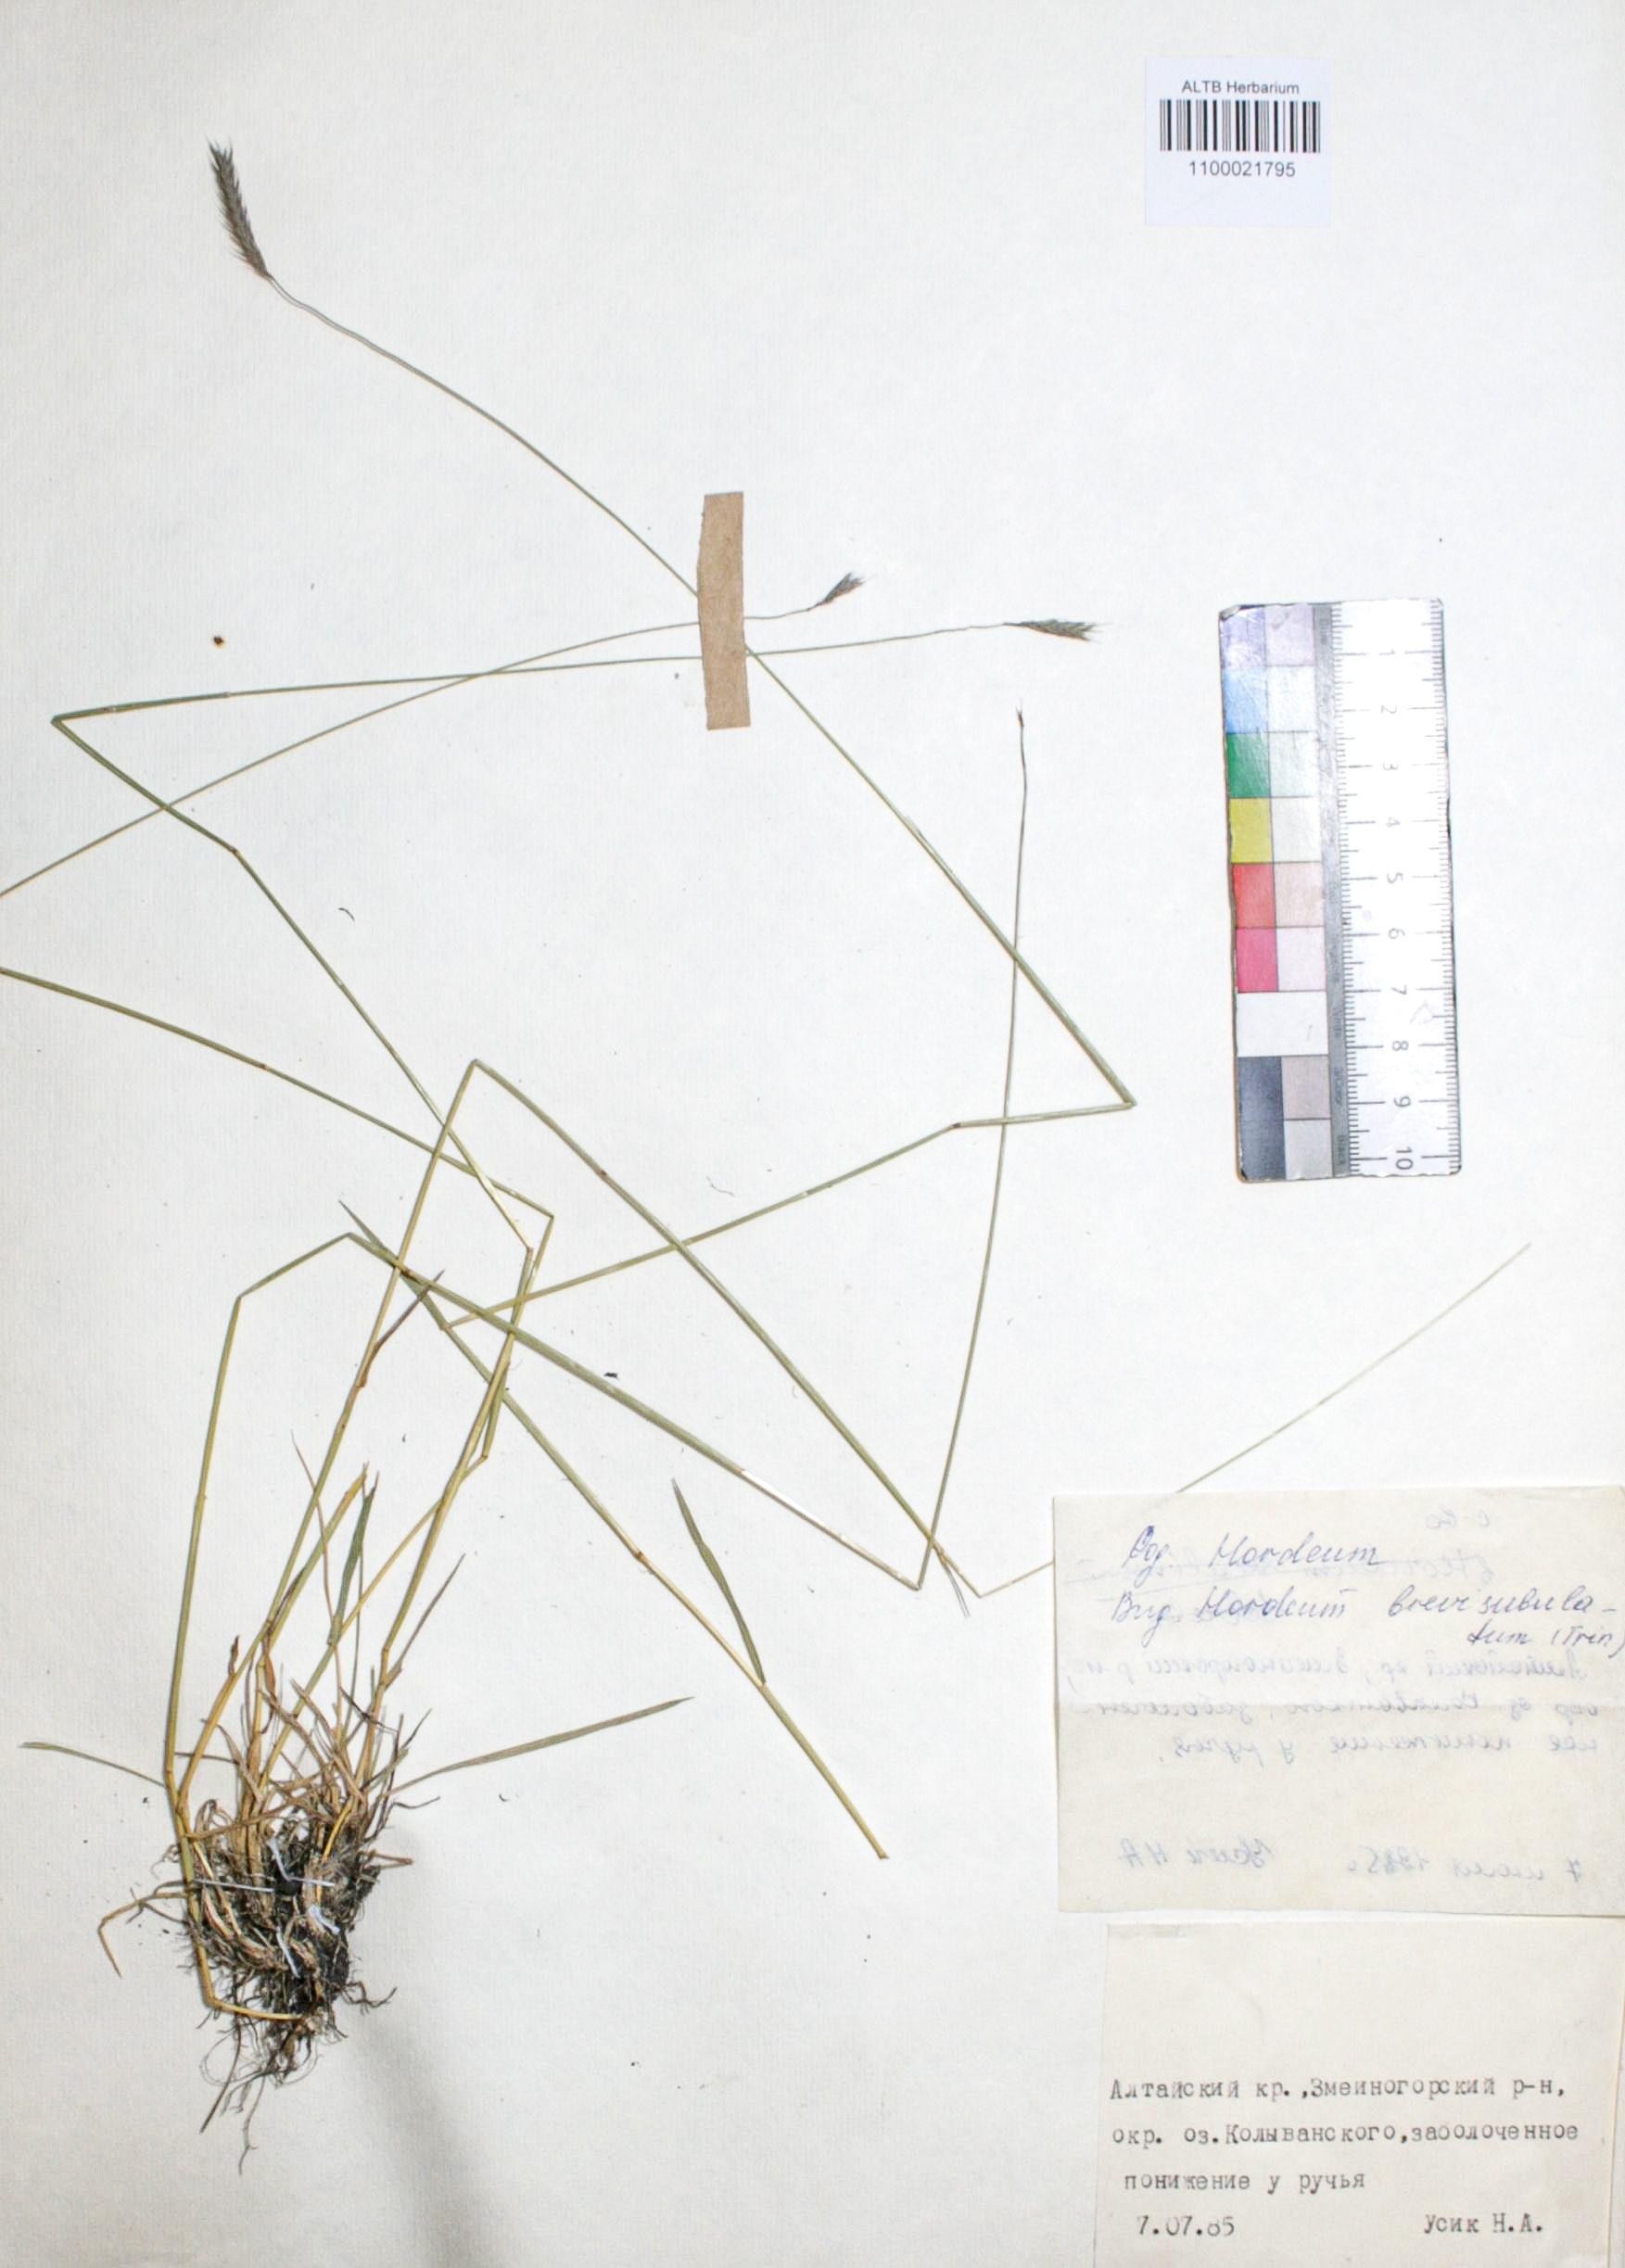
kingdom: Plantae
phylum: Tracheophyta
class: Liliopsida
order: Poales
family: Poaceae
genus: Hordeum
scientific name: Hordeum brevisubulatum
